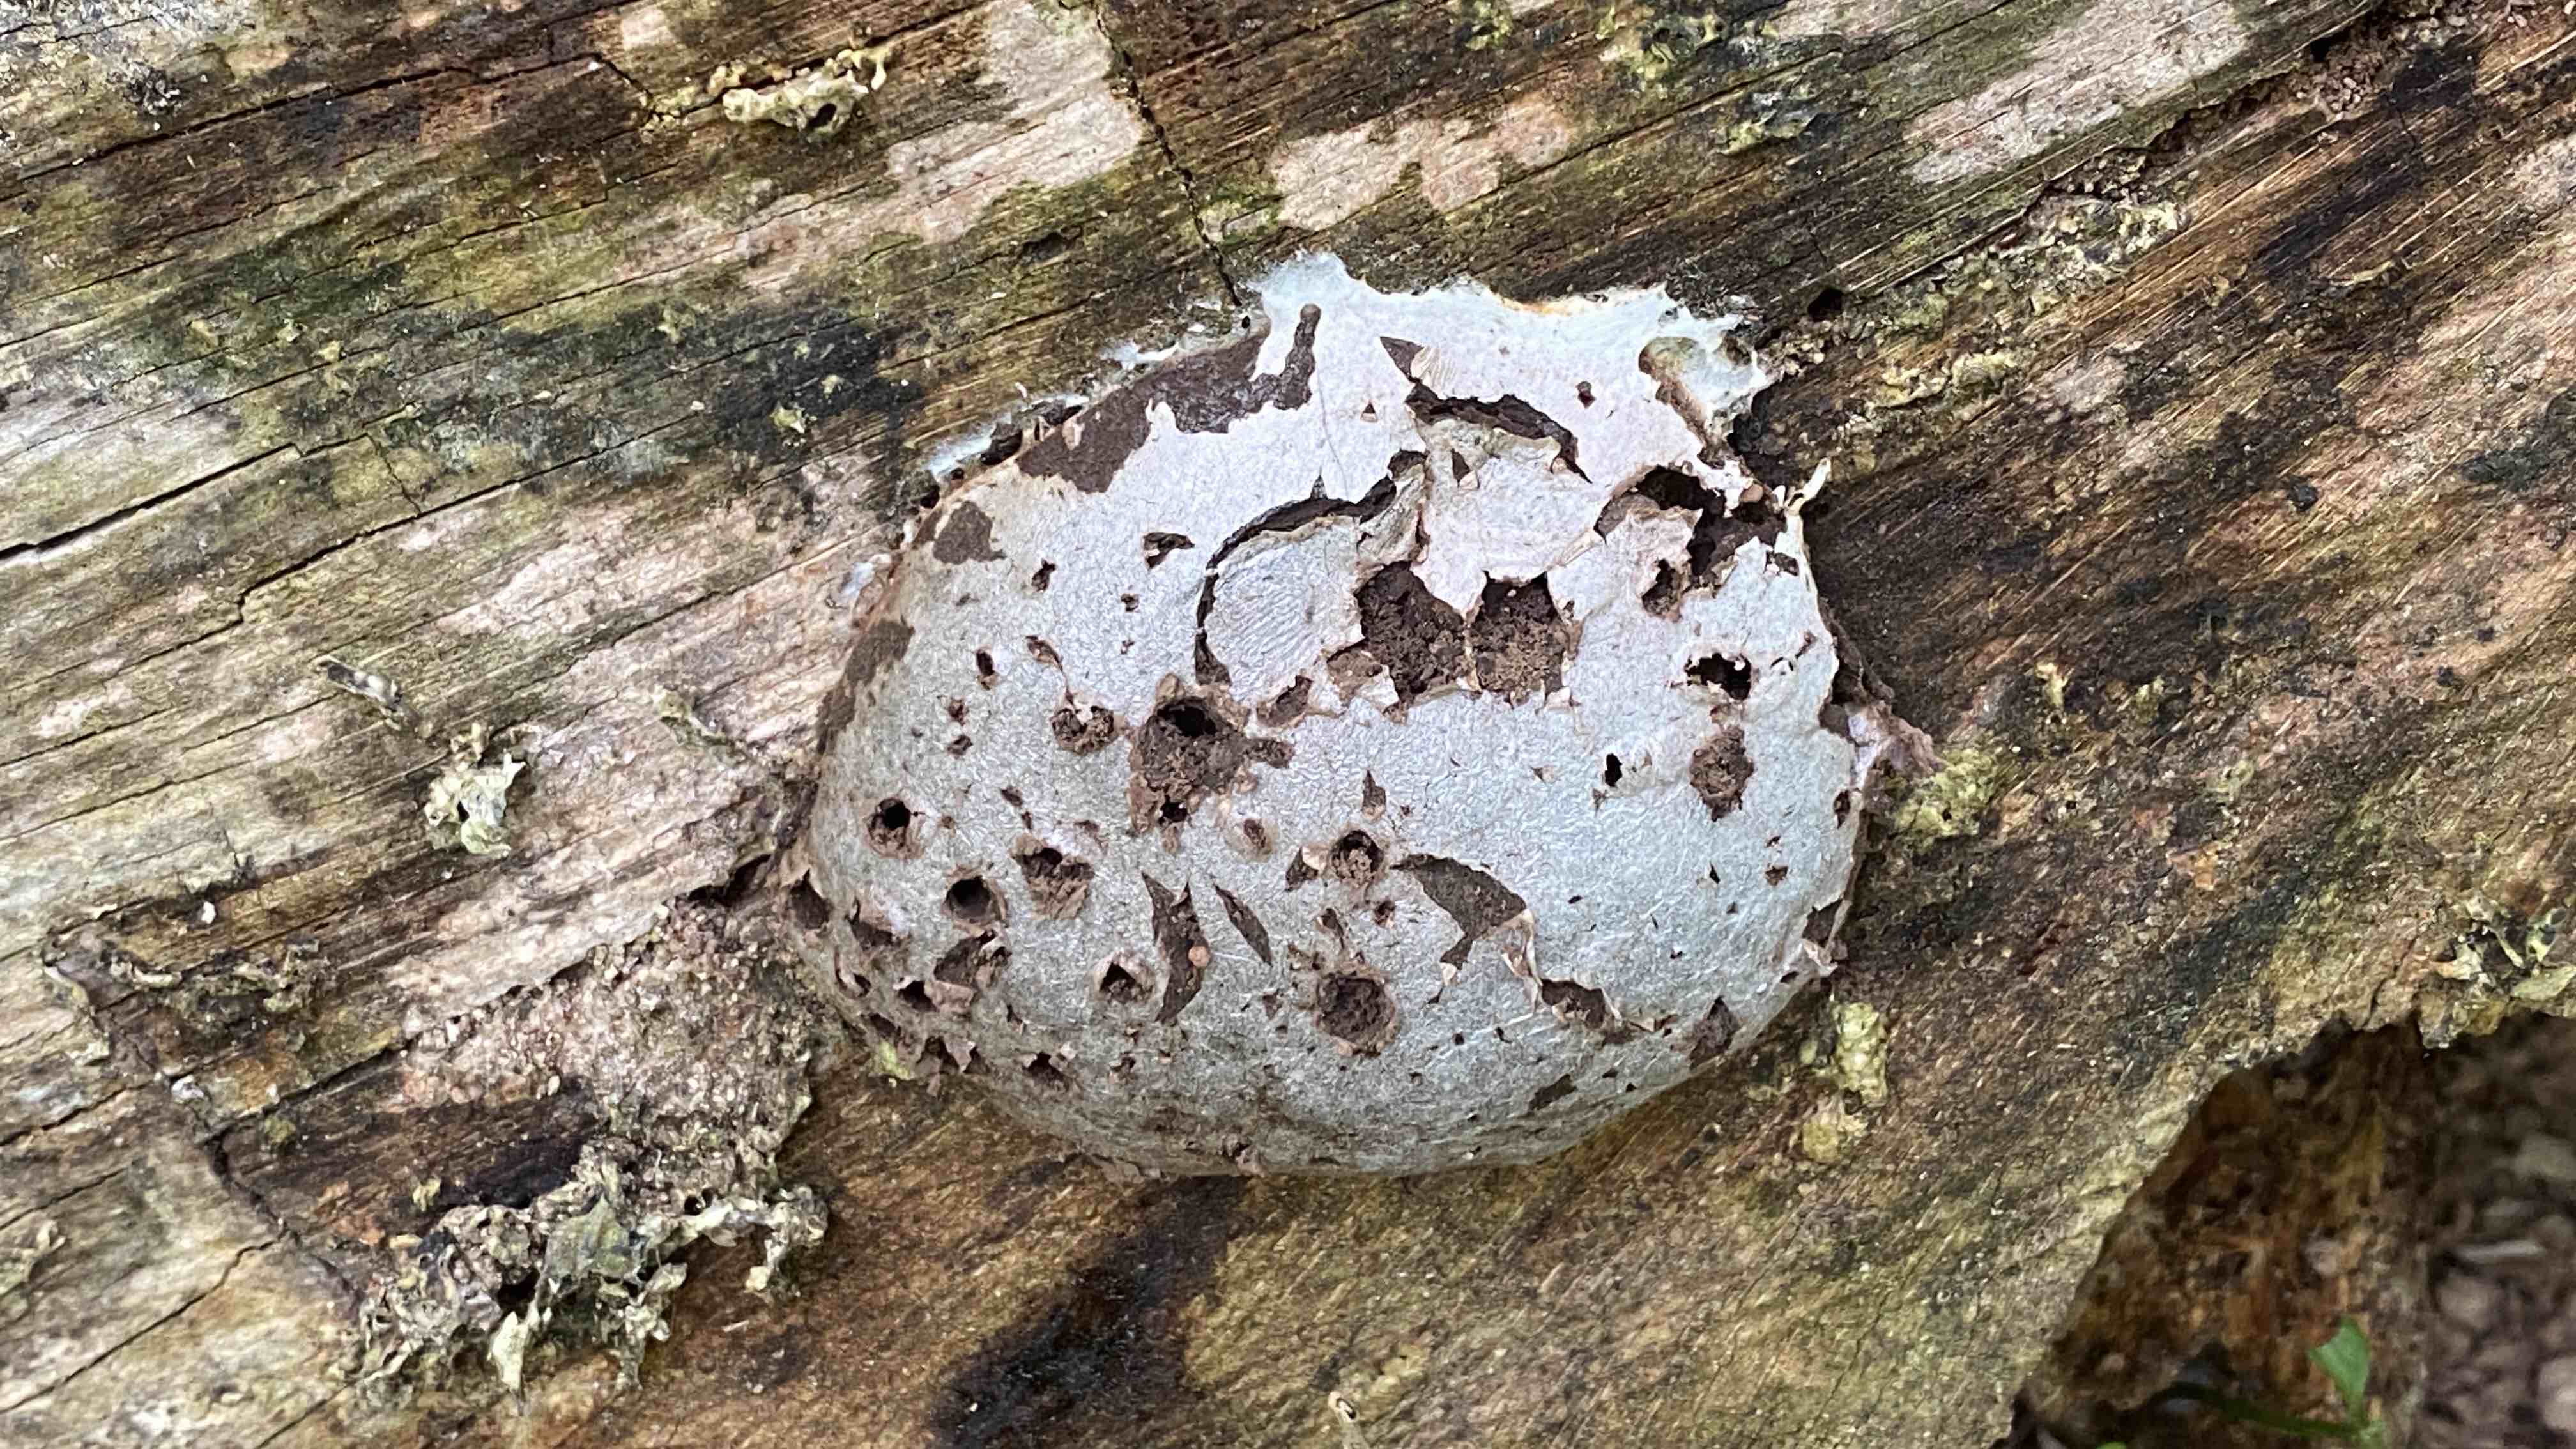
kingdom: Protozoa
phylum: Mycetozoa
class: Myxomycetes
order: Cribrariales
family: Tubiferaceae
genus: Reticularia
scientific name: Reticularia lycoperdon
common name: skinnende støvpude
